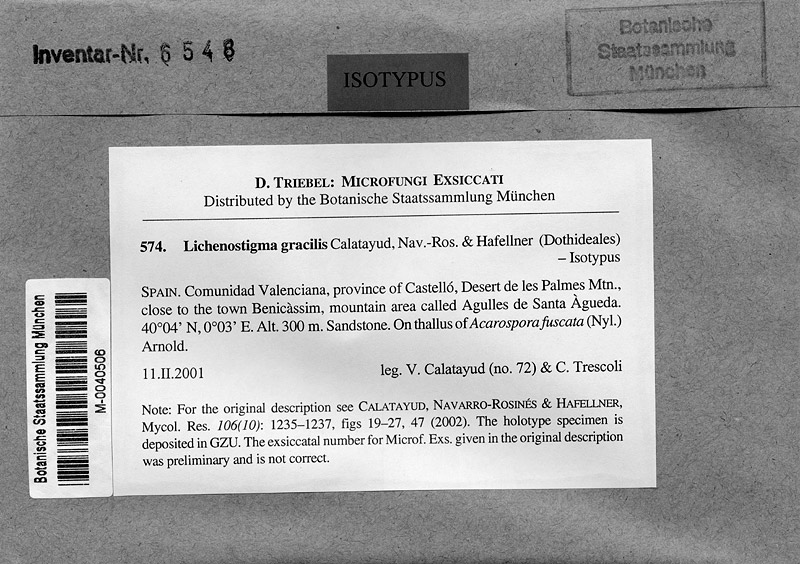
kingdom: Fungi
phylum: Ascomycota
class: Lecanoromycetes
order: Acarosporales
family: Acarosporaceae
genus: Acarospora
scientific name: Acarospora fuscata
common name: Brown cobblestone lichen
